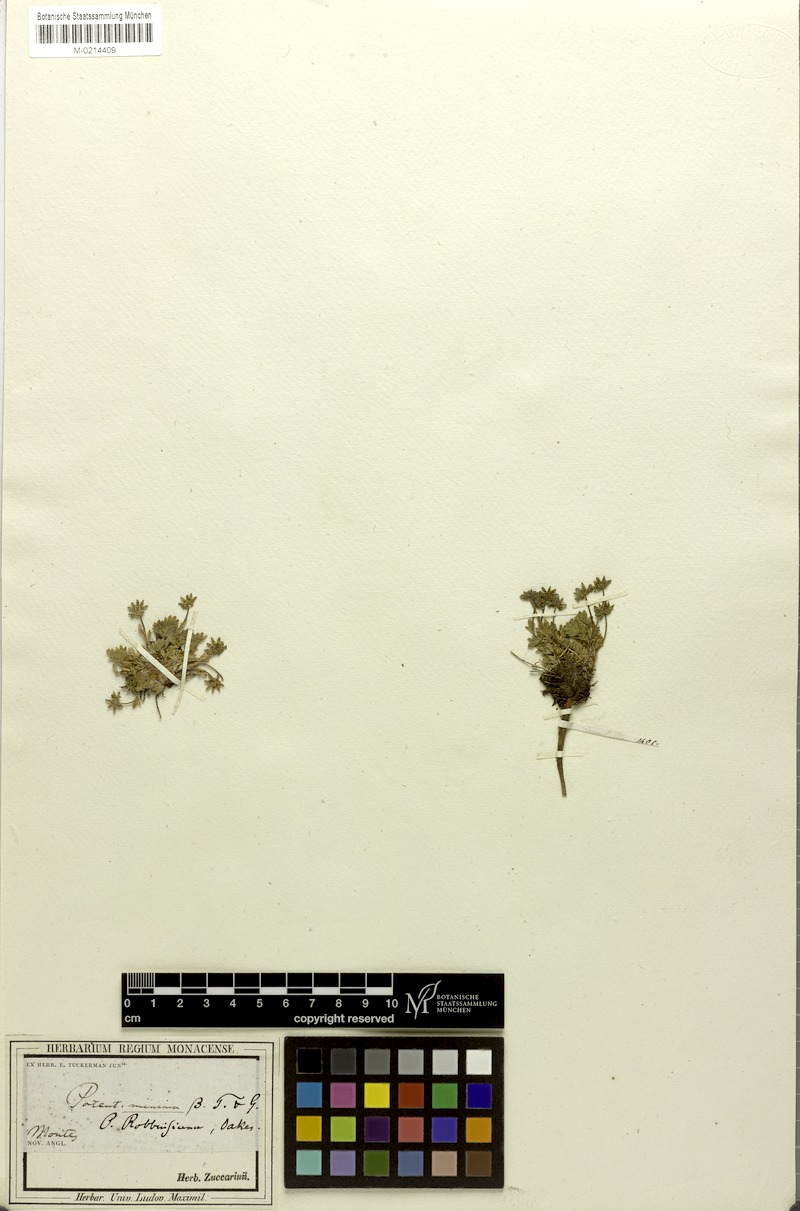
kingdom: Plantae
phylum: Tracheophyta
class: Magnoliopsida
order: Rosales
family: Rosaceae
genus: Potentilla
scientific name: Potentilla robbinsiana
